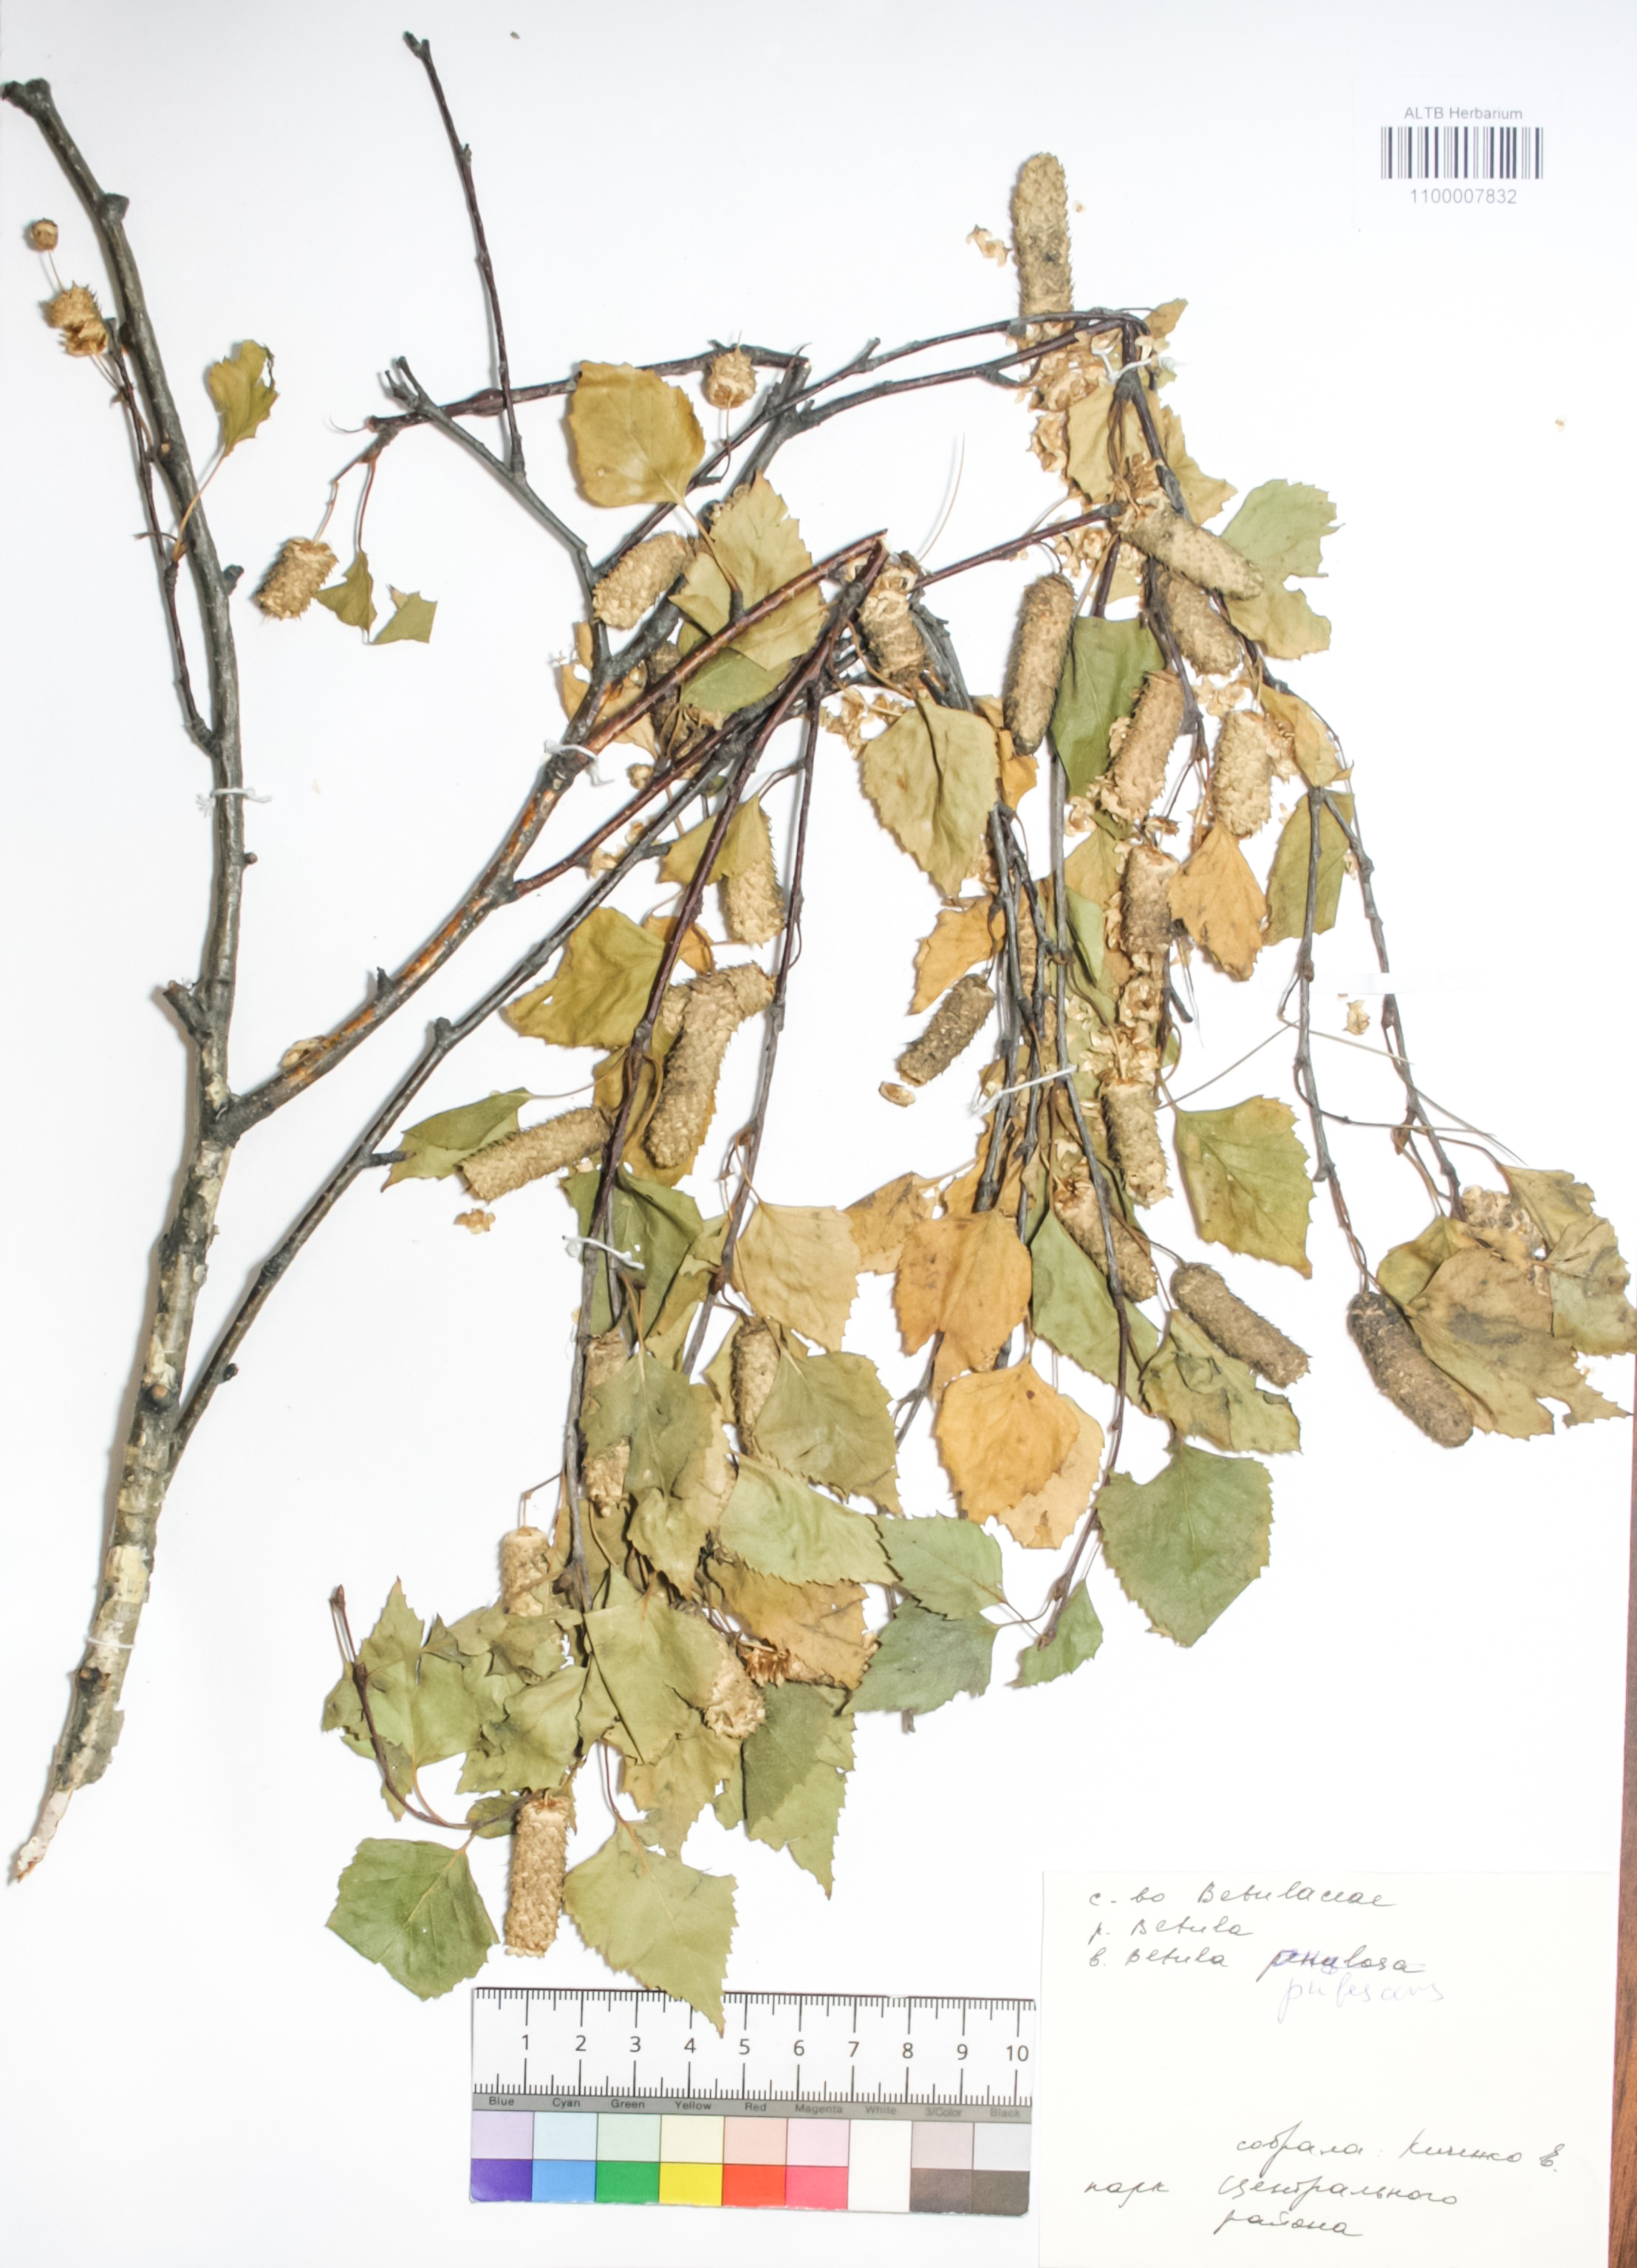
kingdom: Plantae
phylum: Tracheophyta
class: Magnoliopsida
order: Fagales
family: Betulaceae
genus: Betula
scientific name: Betula pubescens
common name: Downy birch
